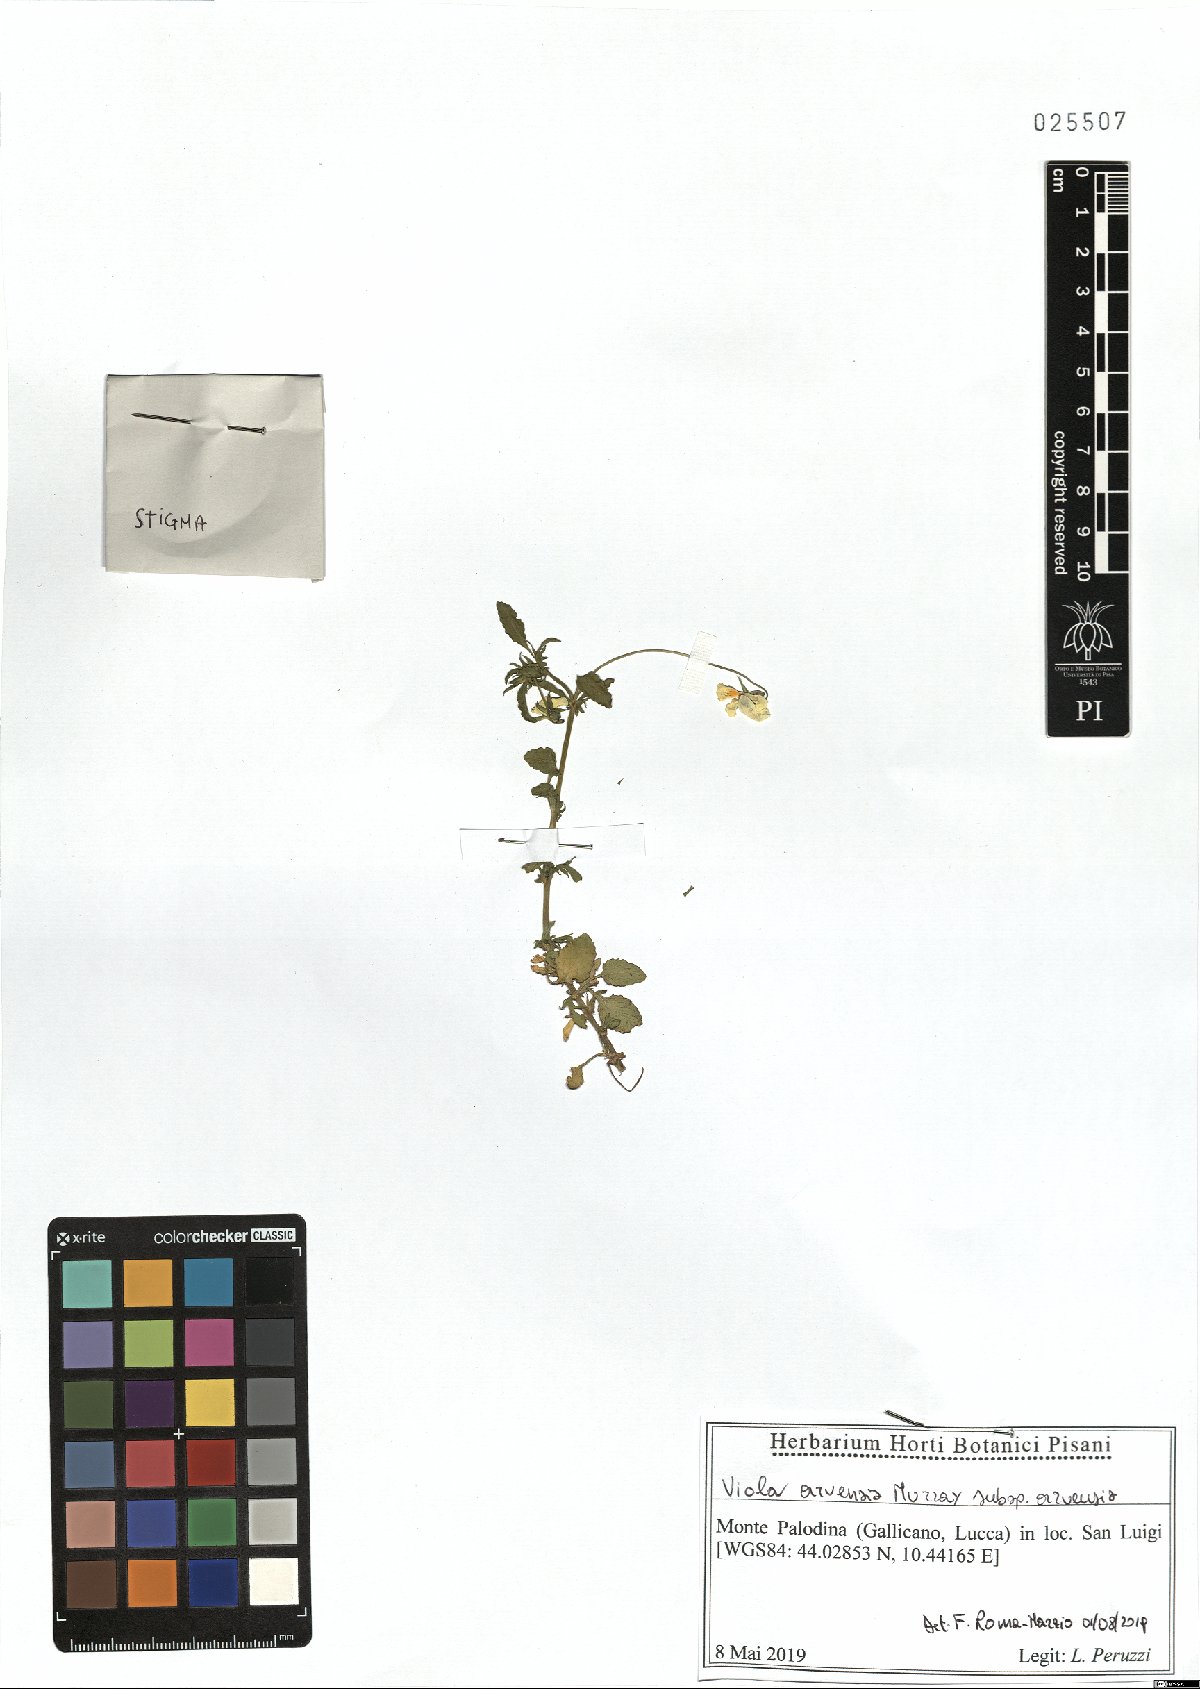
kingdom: Plantae
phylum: Tracheophyta
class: Magnoliopsida
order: Malpighiales
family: Violaceae
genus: Viola
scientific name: Viola arvensis
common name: Field pansy
